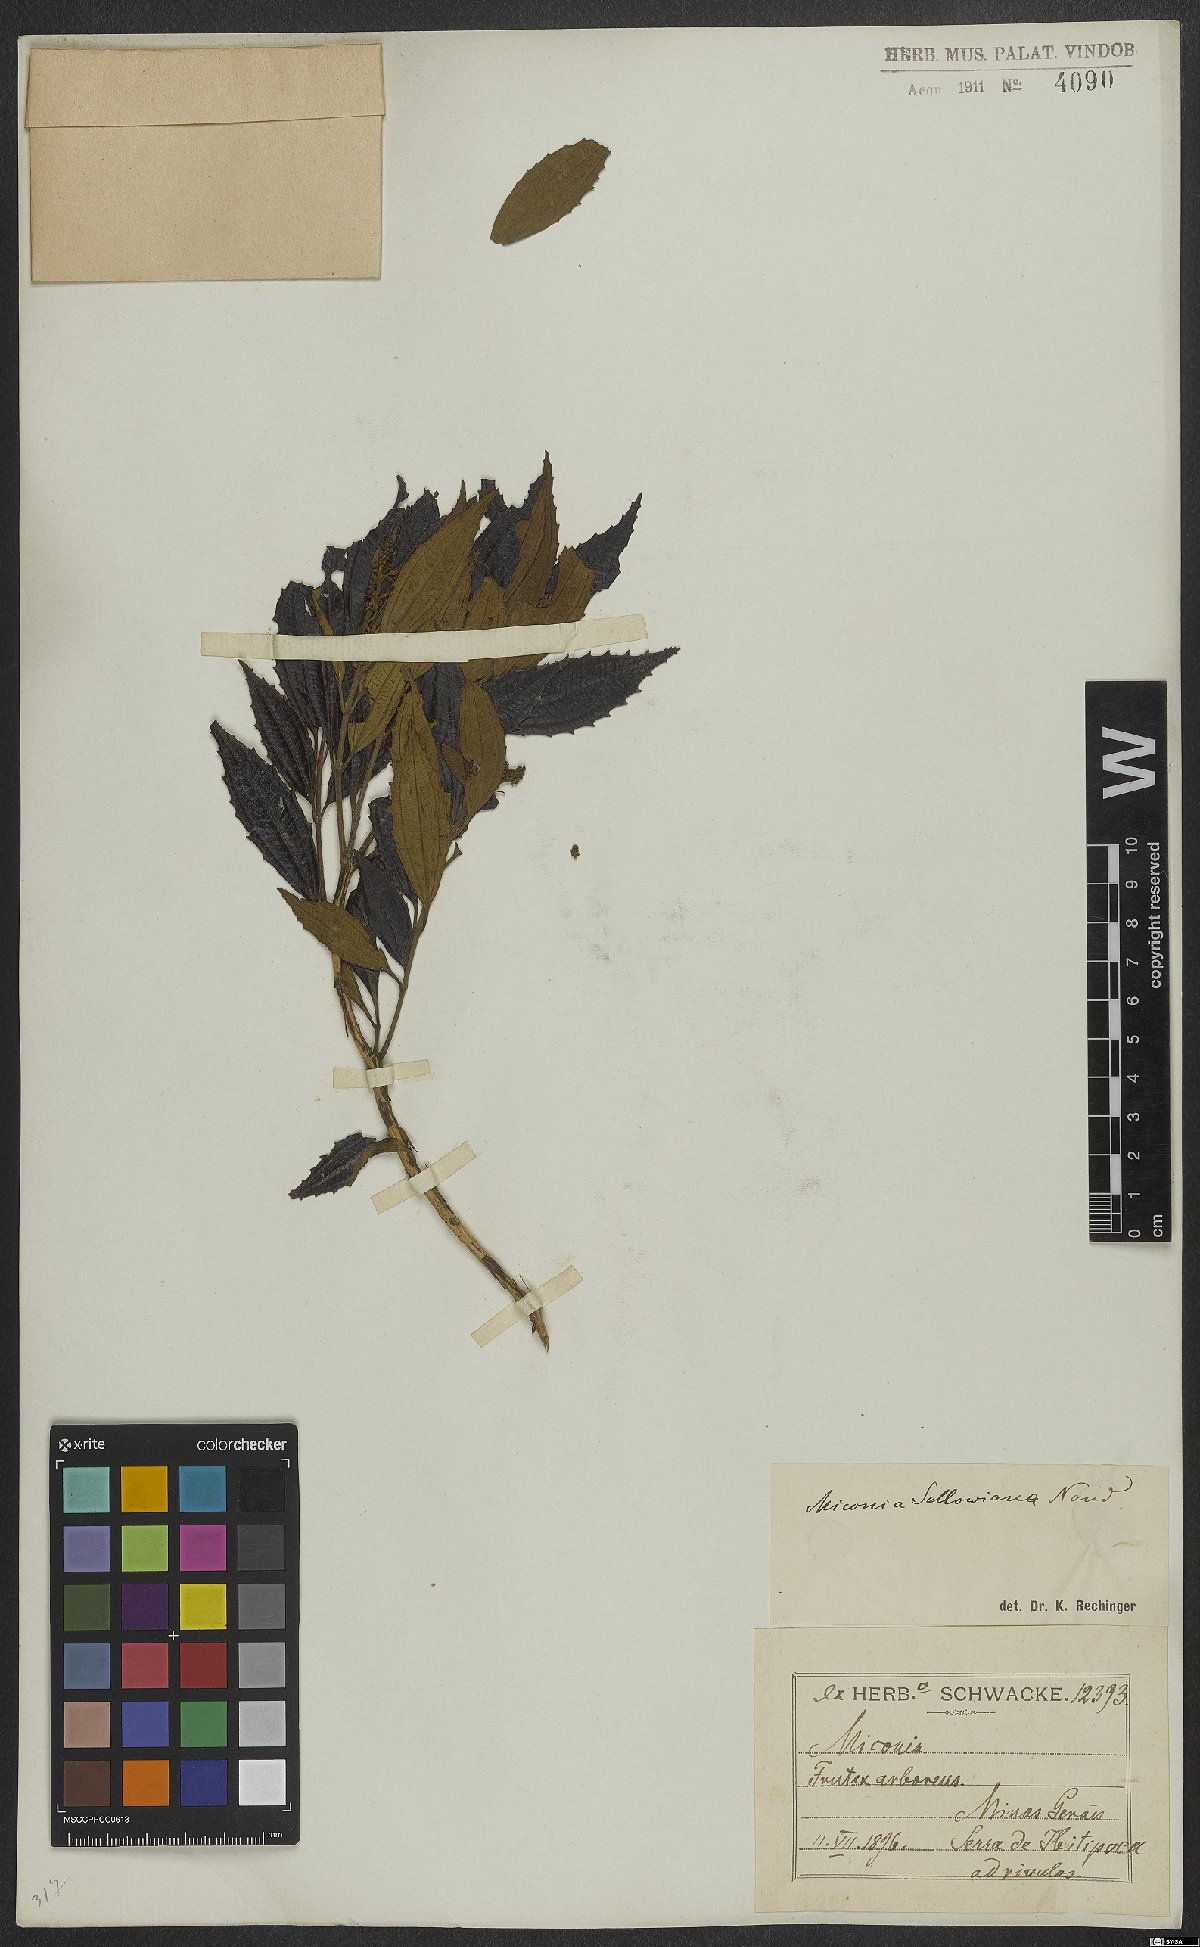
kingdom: Plantae
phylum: Tracheophyta
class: Magnoliopsida
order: Myrtales
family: Melastomataceae
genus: Miconia
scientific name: Miconia sellowiana
